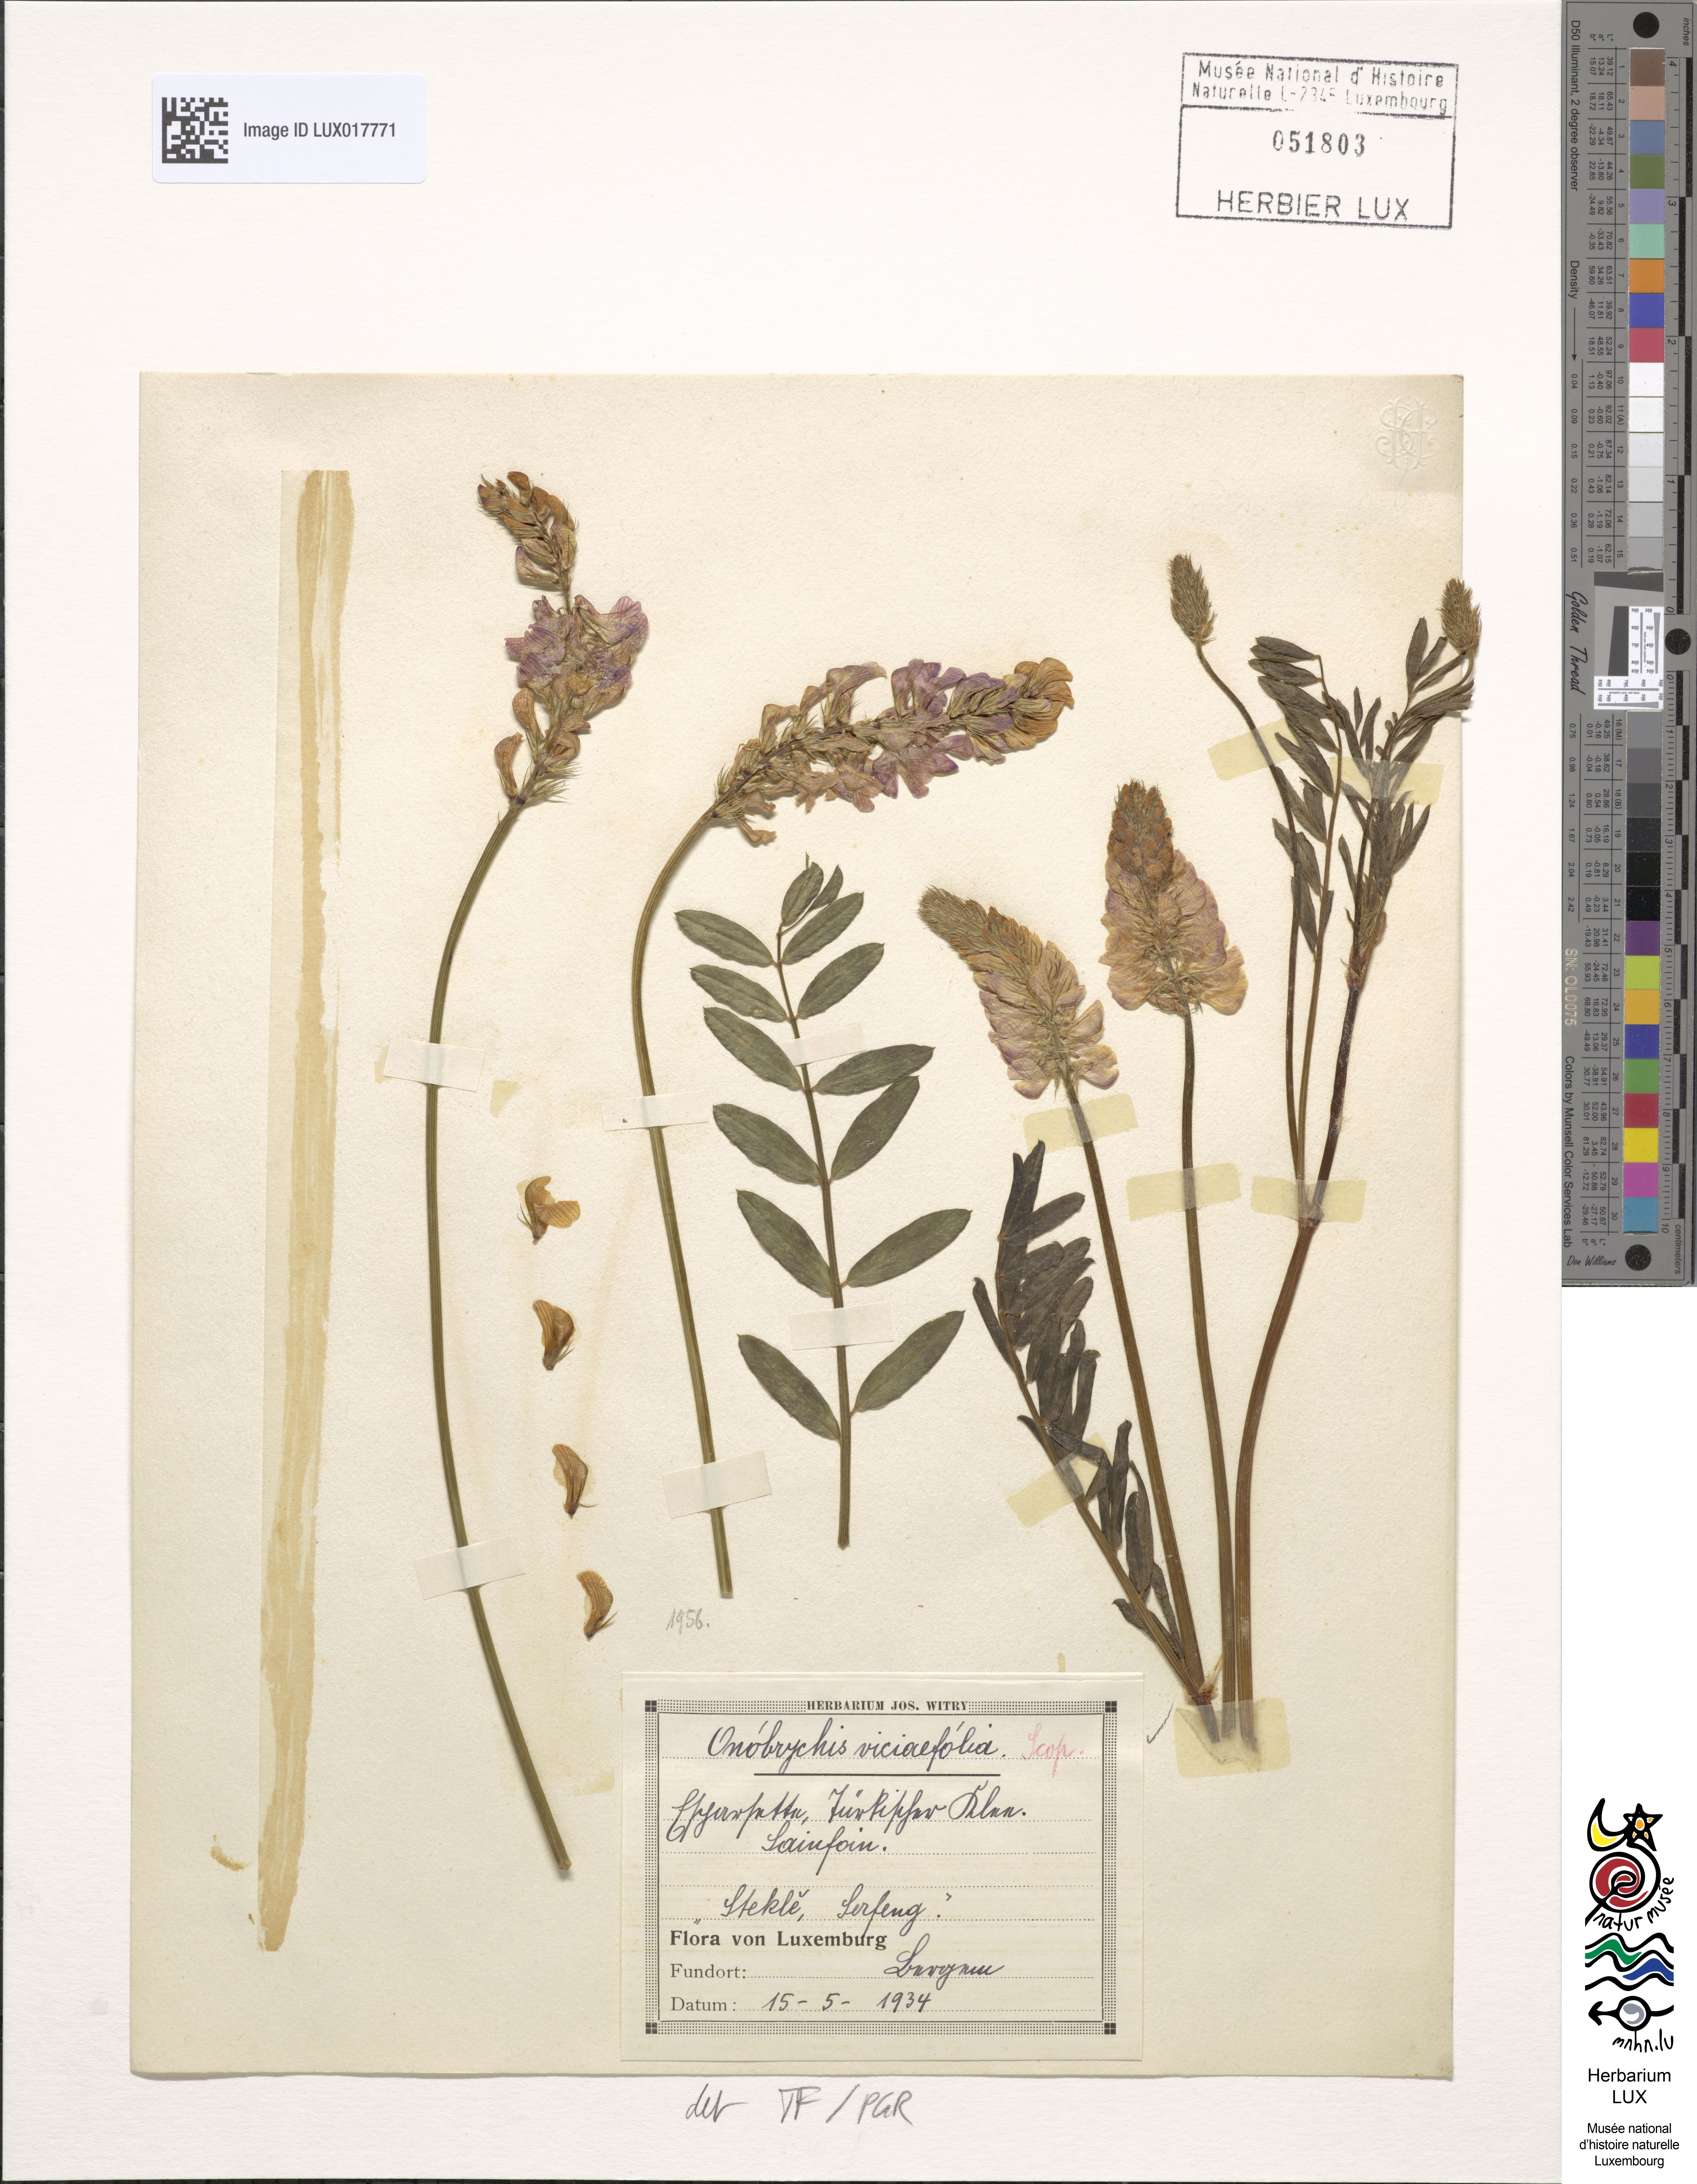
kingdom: Plantae
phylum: Tracheophyta
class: Magnoliopsida
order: Fabales
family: Fabaceae
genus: Onobrychis
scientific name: Onobrychis viciifolia
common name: Sainfoin
